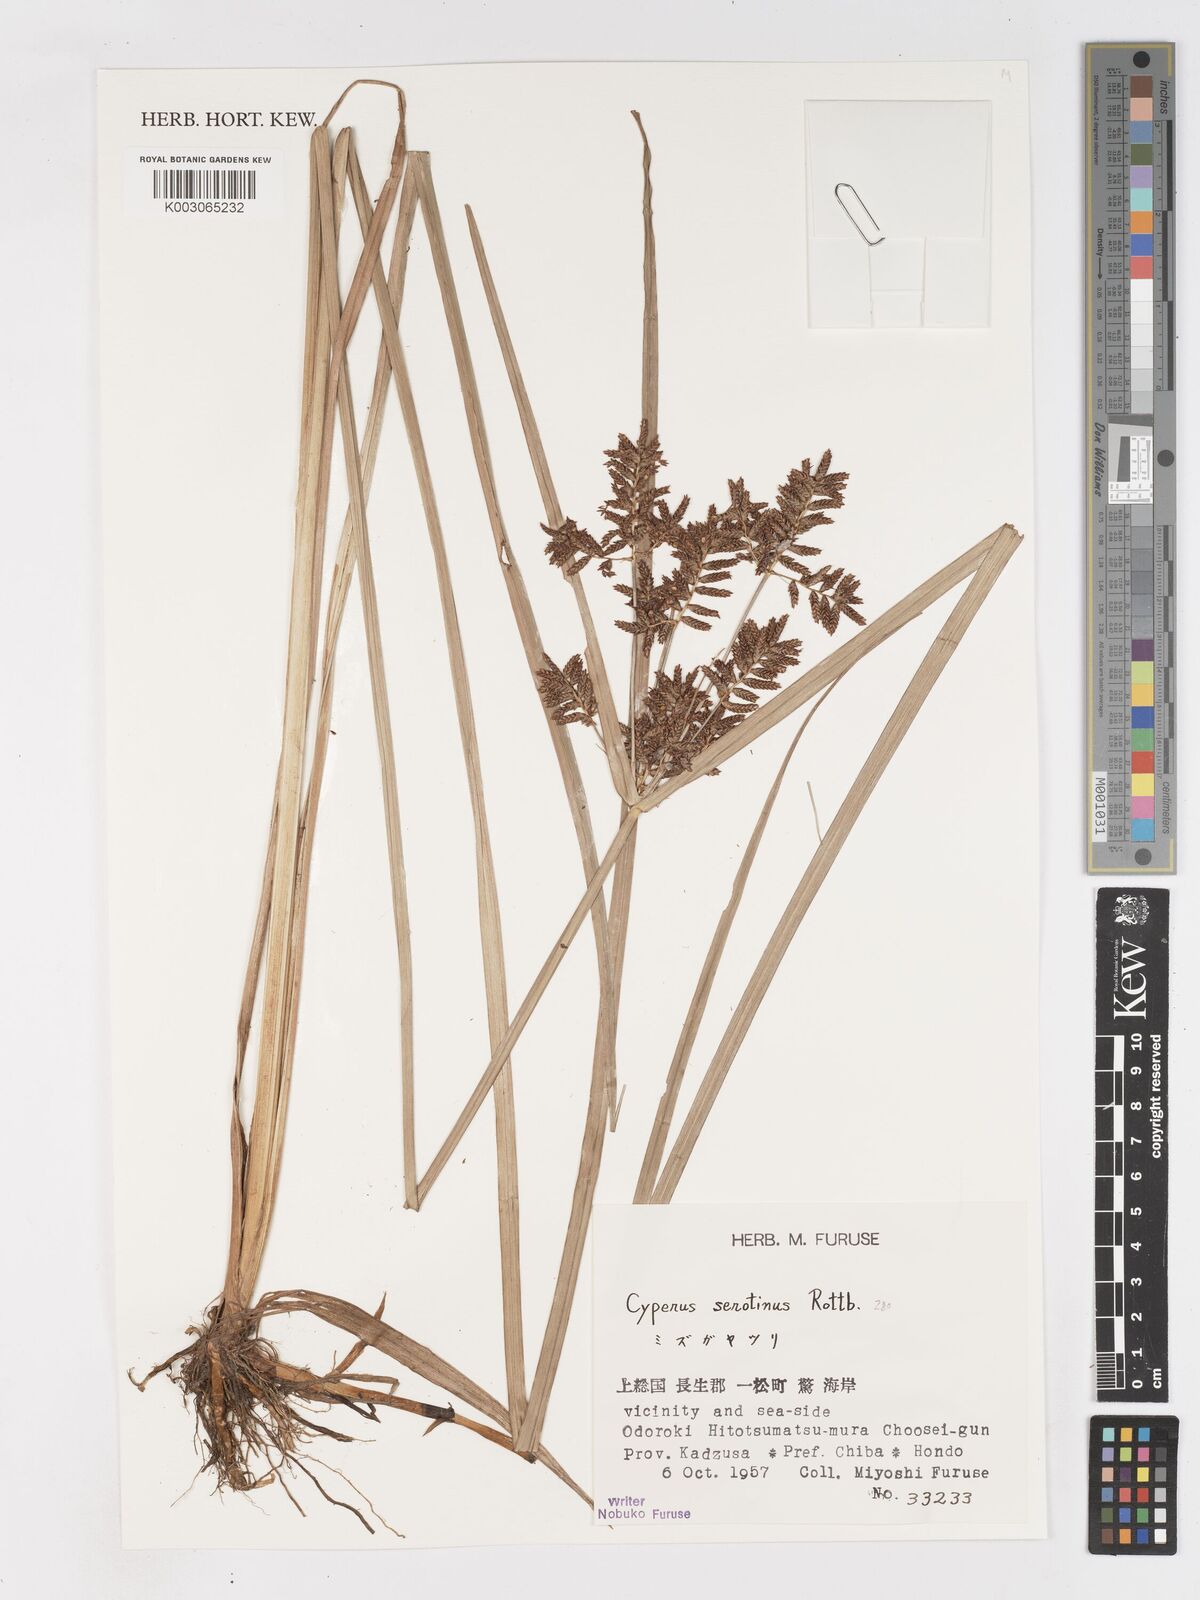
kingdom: Plantae
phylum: Tracheophyta
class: Liliopsida
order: Poales
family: Cyperaceae
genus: Cyperus
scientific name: Cyperus serotinus
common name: Tidalmarsh flatsedge
